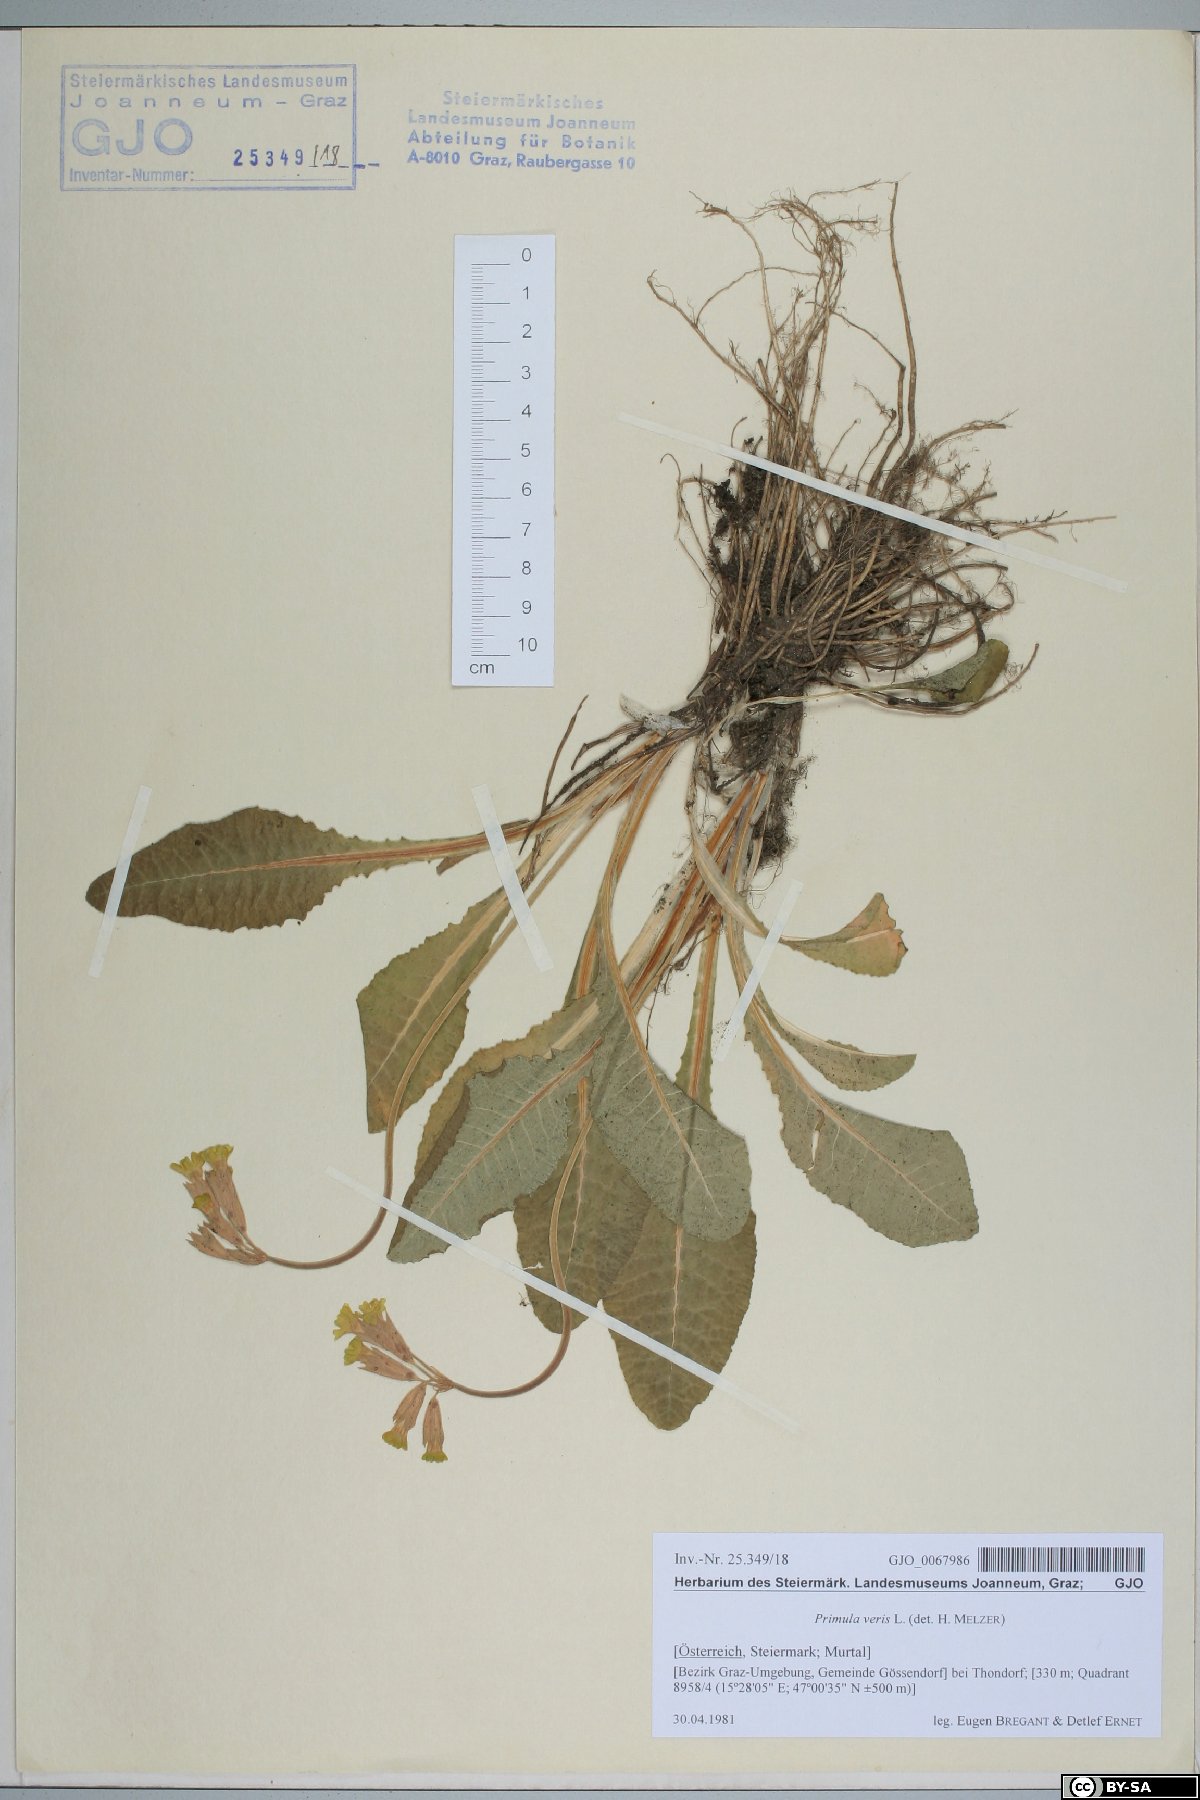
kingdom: Plantae
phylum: Tracheophyta
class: Magnoliopsida
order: Ericales
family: Primulaceae
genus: Primula
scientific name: Primula veris
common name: Cowslip
